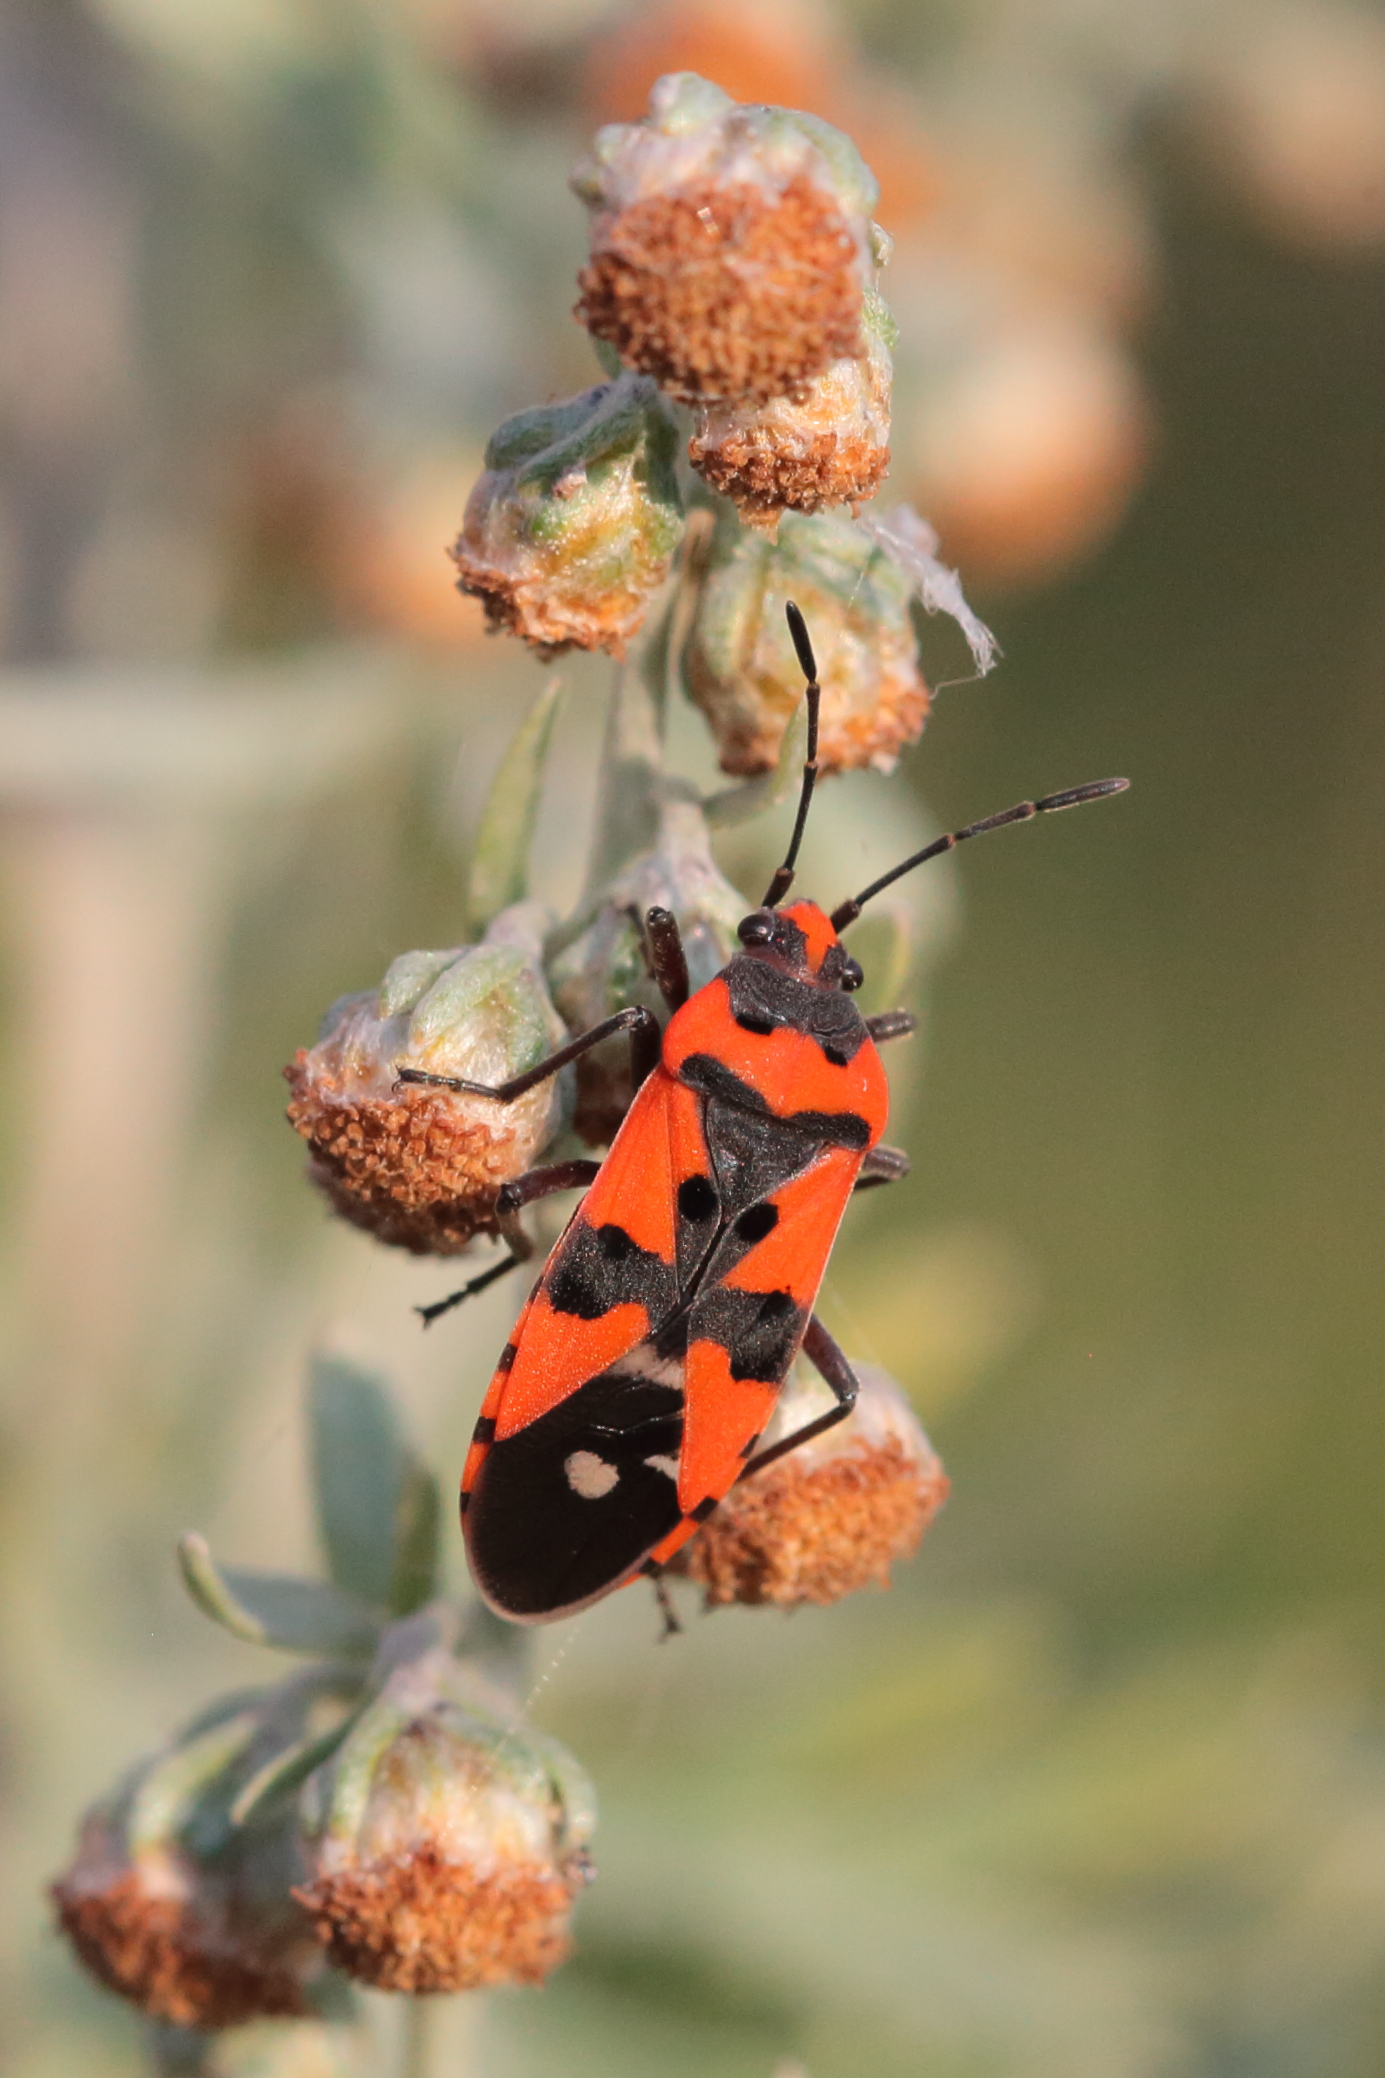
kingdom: Animalia
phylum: Arthropoda
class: Insecta
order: Hemiptera
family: Lygaeidae
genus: Lygaeus
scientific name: Lygaeus equestris
